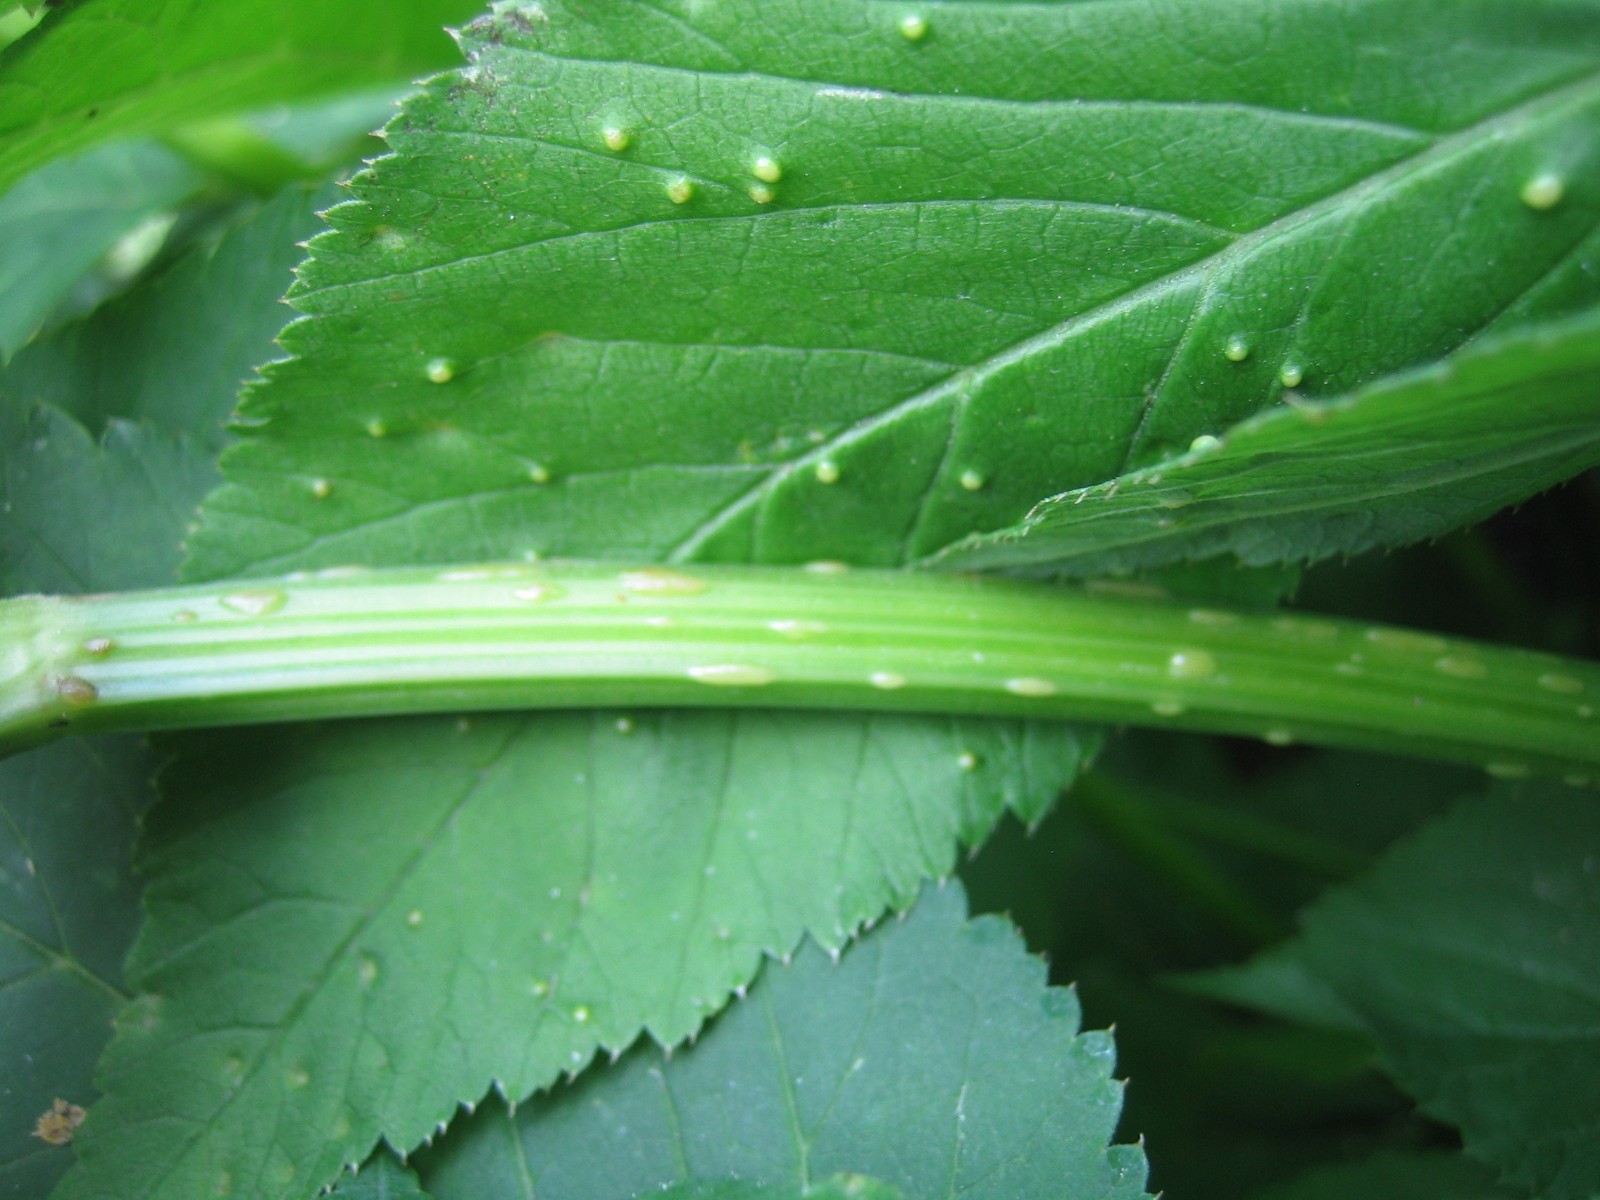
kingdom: Fungi
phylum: Ascomycota
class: Taphrinomycetes
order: Taphrinales
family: Taphrinaceae
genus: Protomyces
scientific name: Protomyces macrosporus
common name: skvalderkål-vablesæk
